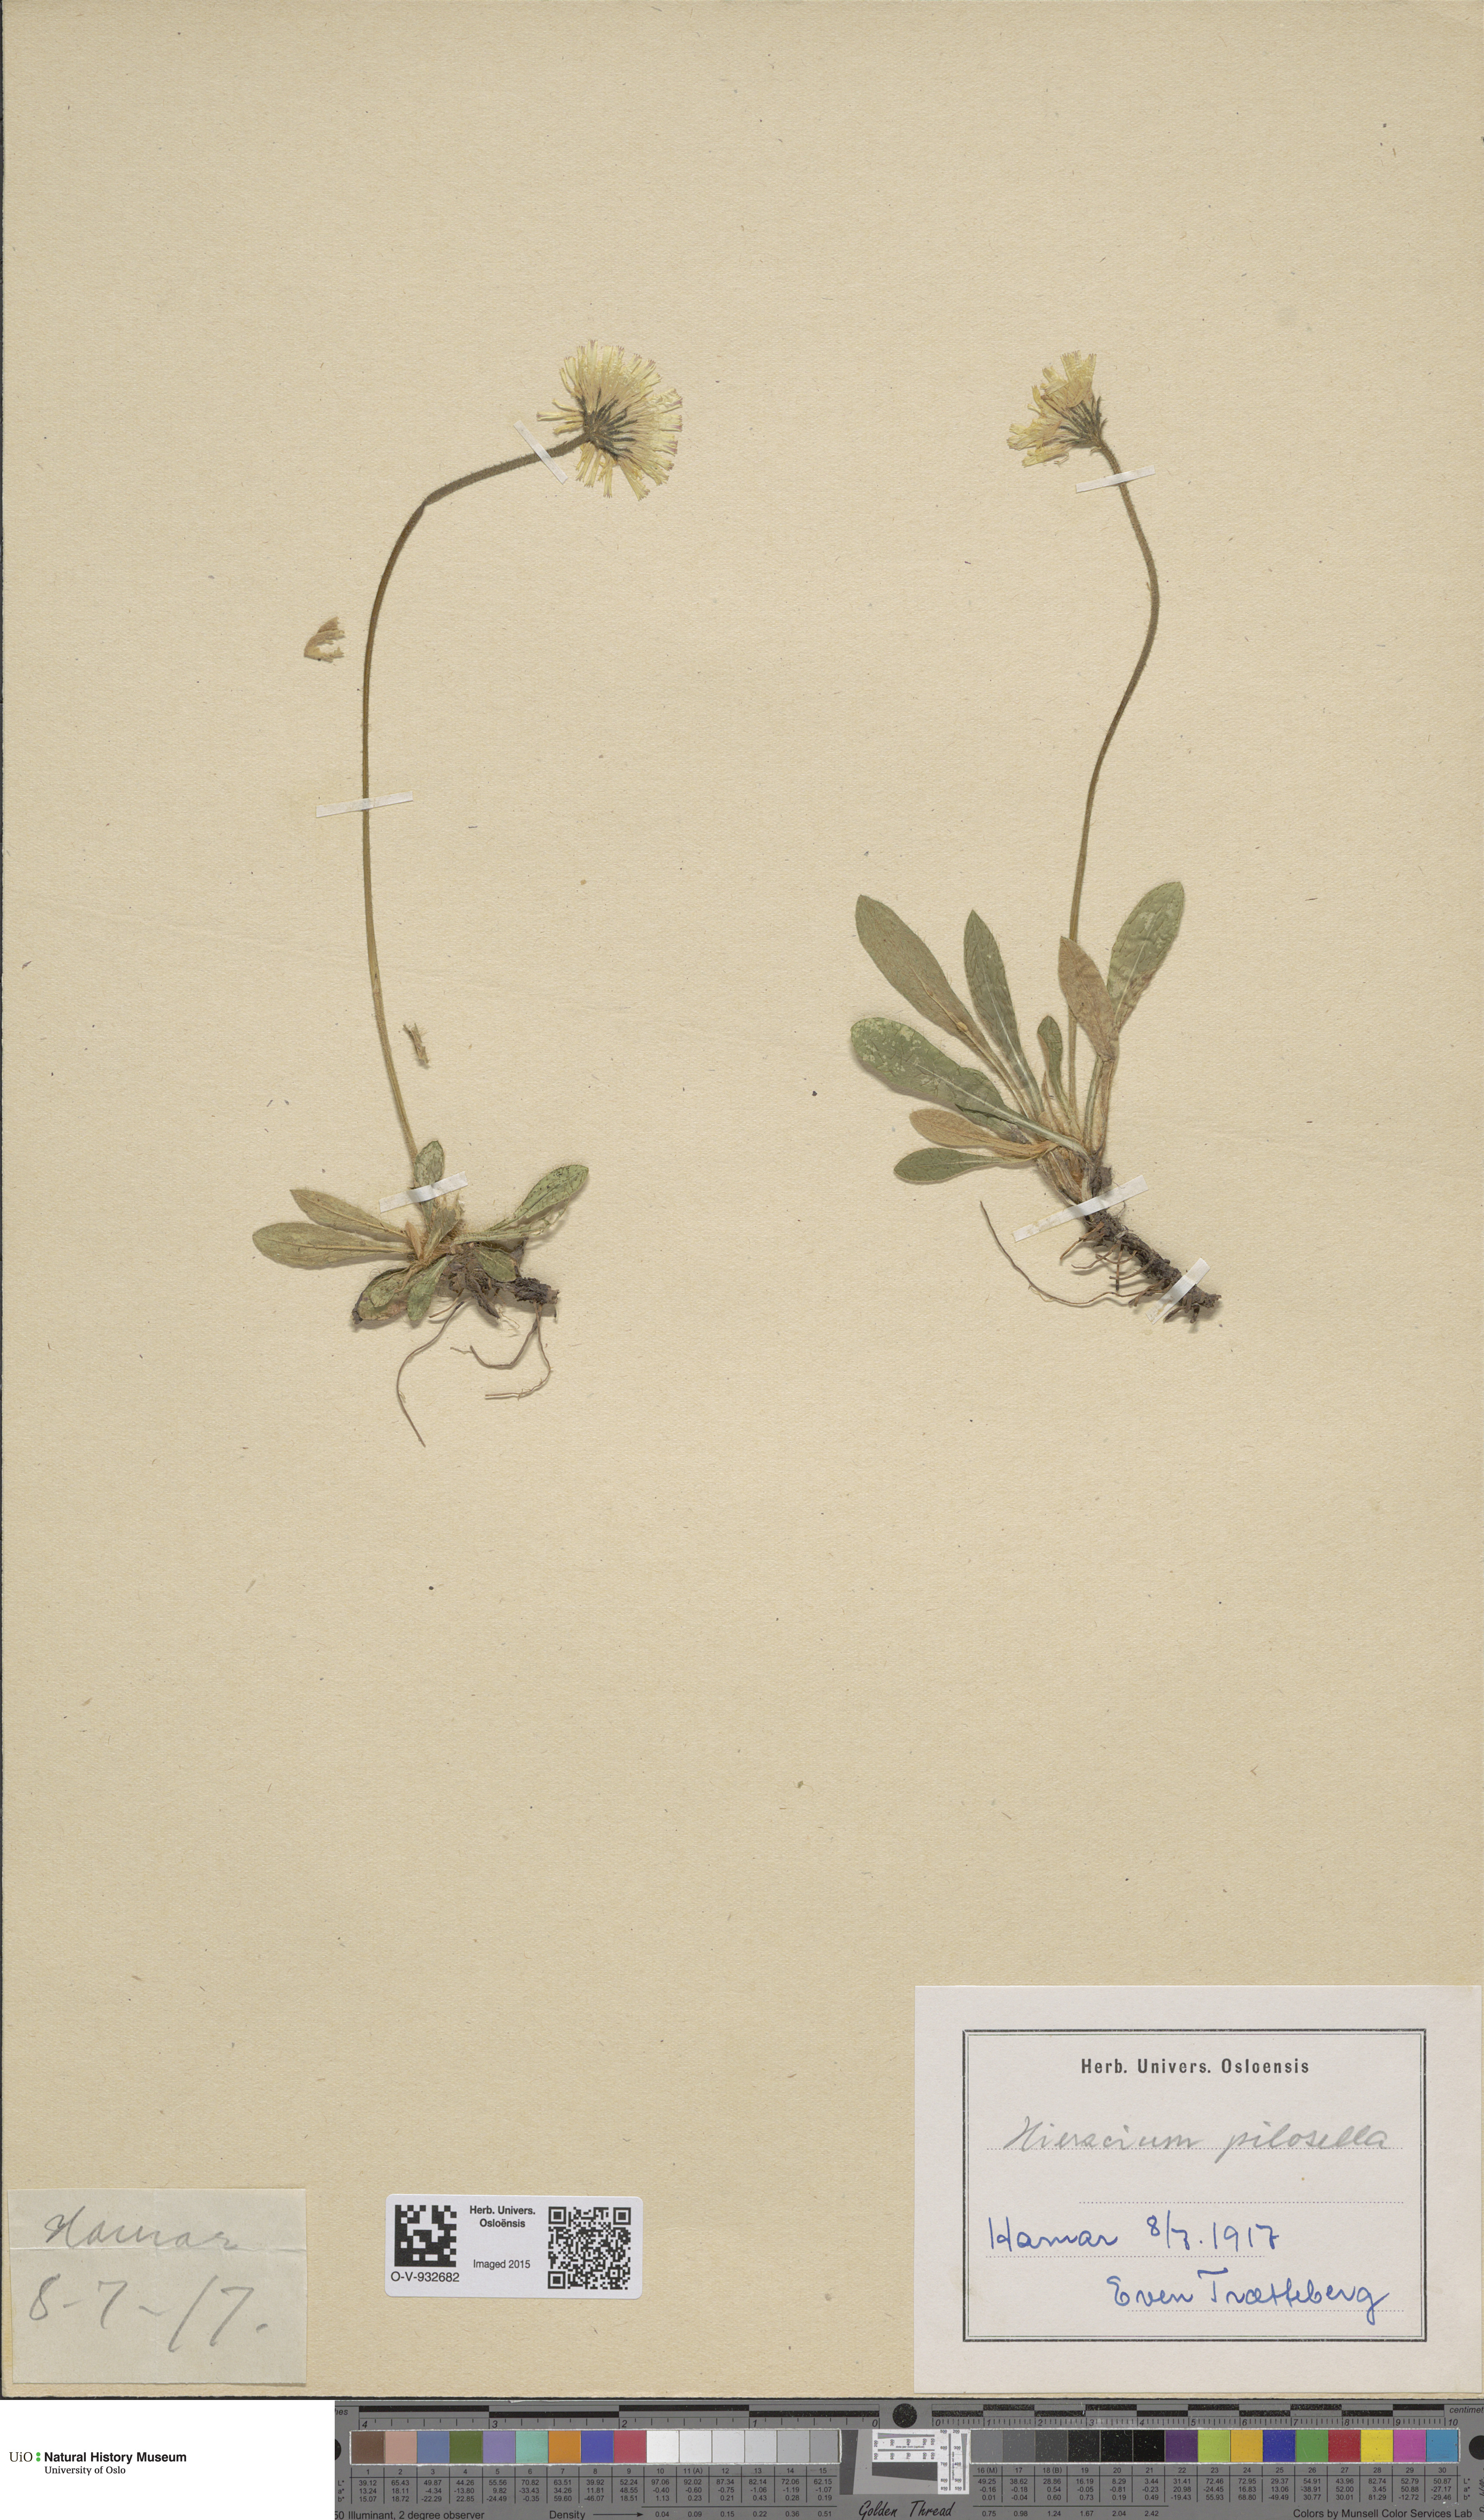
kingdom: Plantae
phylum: Tracheophyta
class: Magnoliopsida
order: Asterales
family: Asteraceae
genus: Pilosella
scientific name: Pilosella officinarum
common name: Mouse-ear hawkweed
